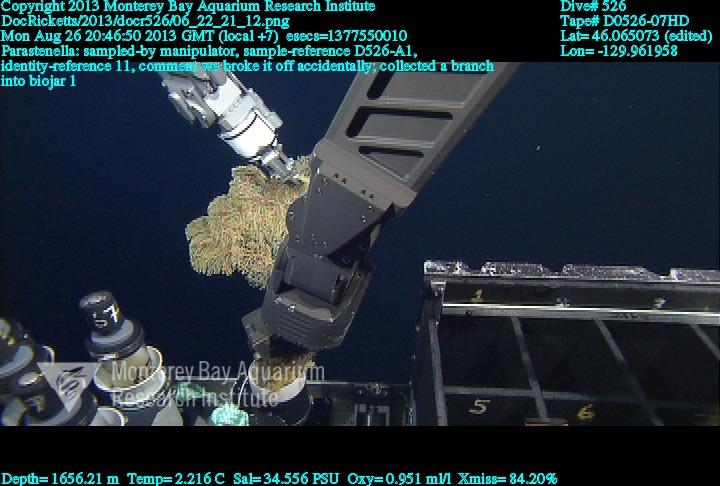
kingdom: Animalia
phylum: Cnidaria
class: Anthozoa
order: Scleralcyonacea
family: Primnoidae
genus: Parastenella
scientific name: Parastenella
